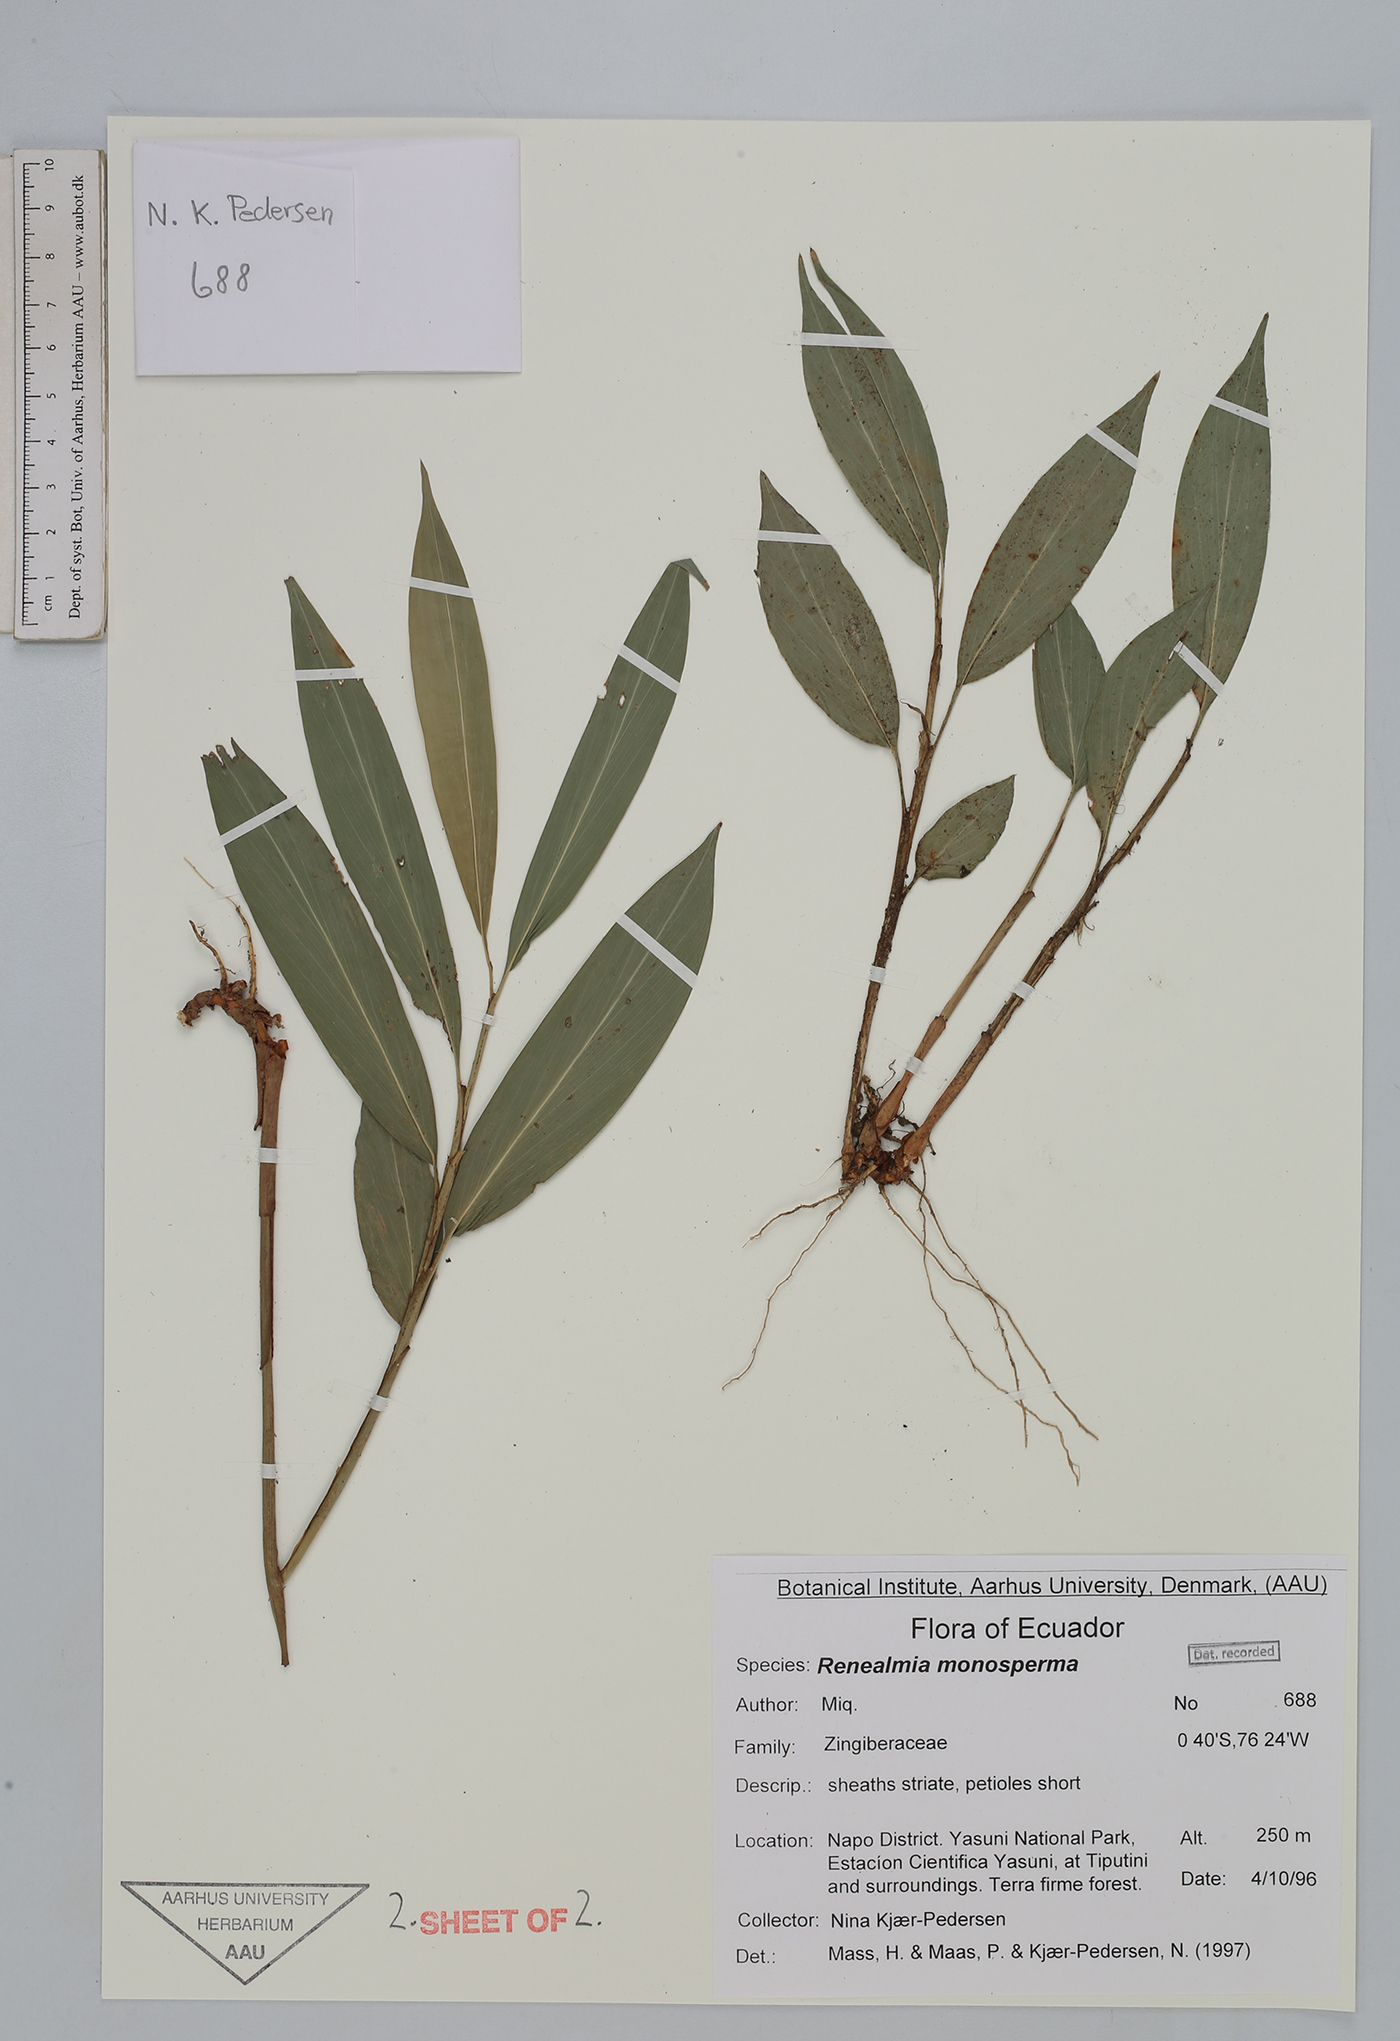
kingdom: Plantae
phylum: Tracheophyta
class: Liliopsida
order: Zingiberales
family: Zingiberaceae
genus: Renealmia
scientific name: Renealmia monosperma
